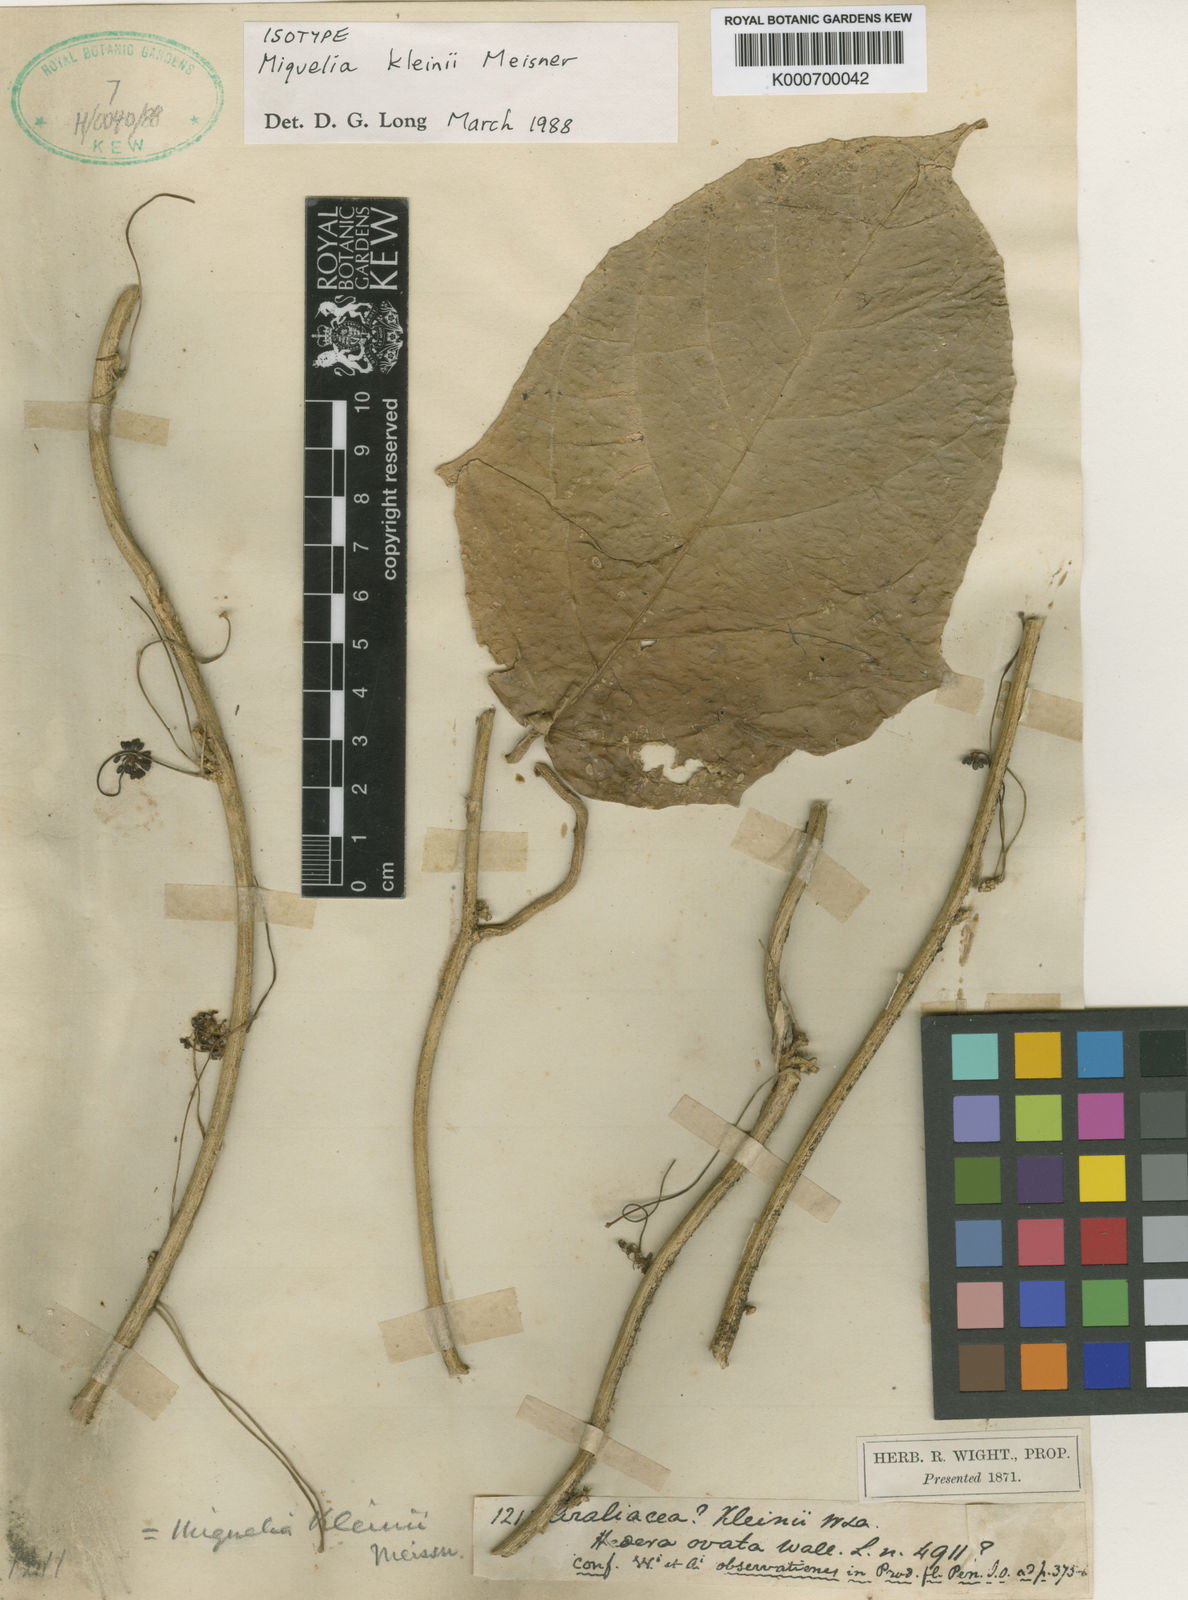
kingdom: Plantae
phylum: Tracheophyta
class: Magnoliopsida
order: Icacinales
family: Icacinaceae
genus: Miquelia
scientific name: Miquelia kleinii
